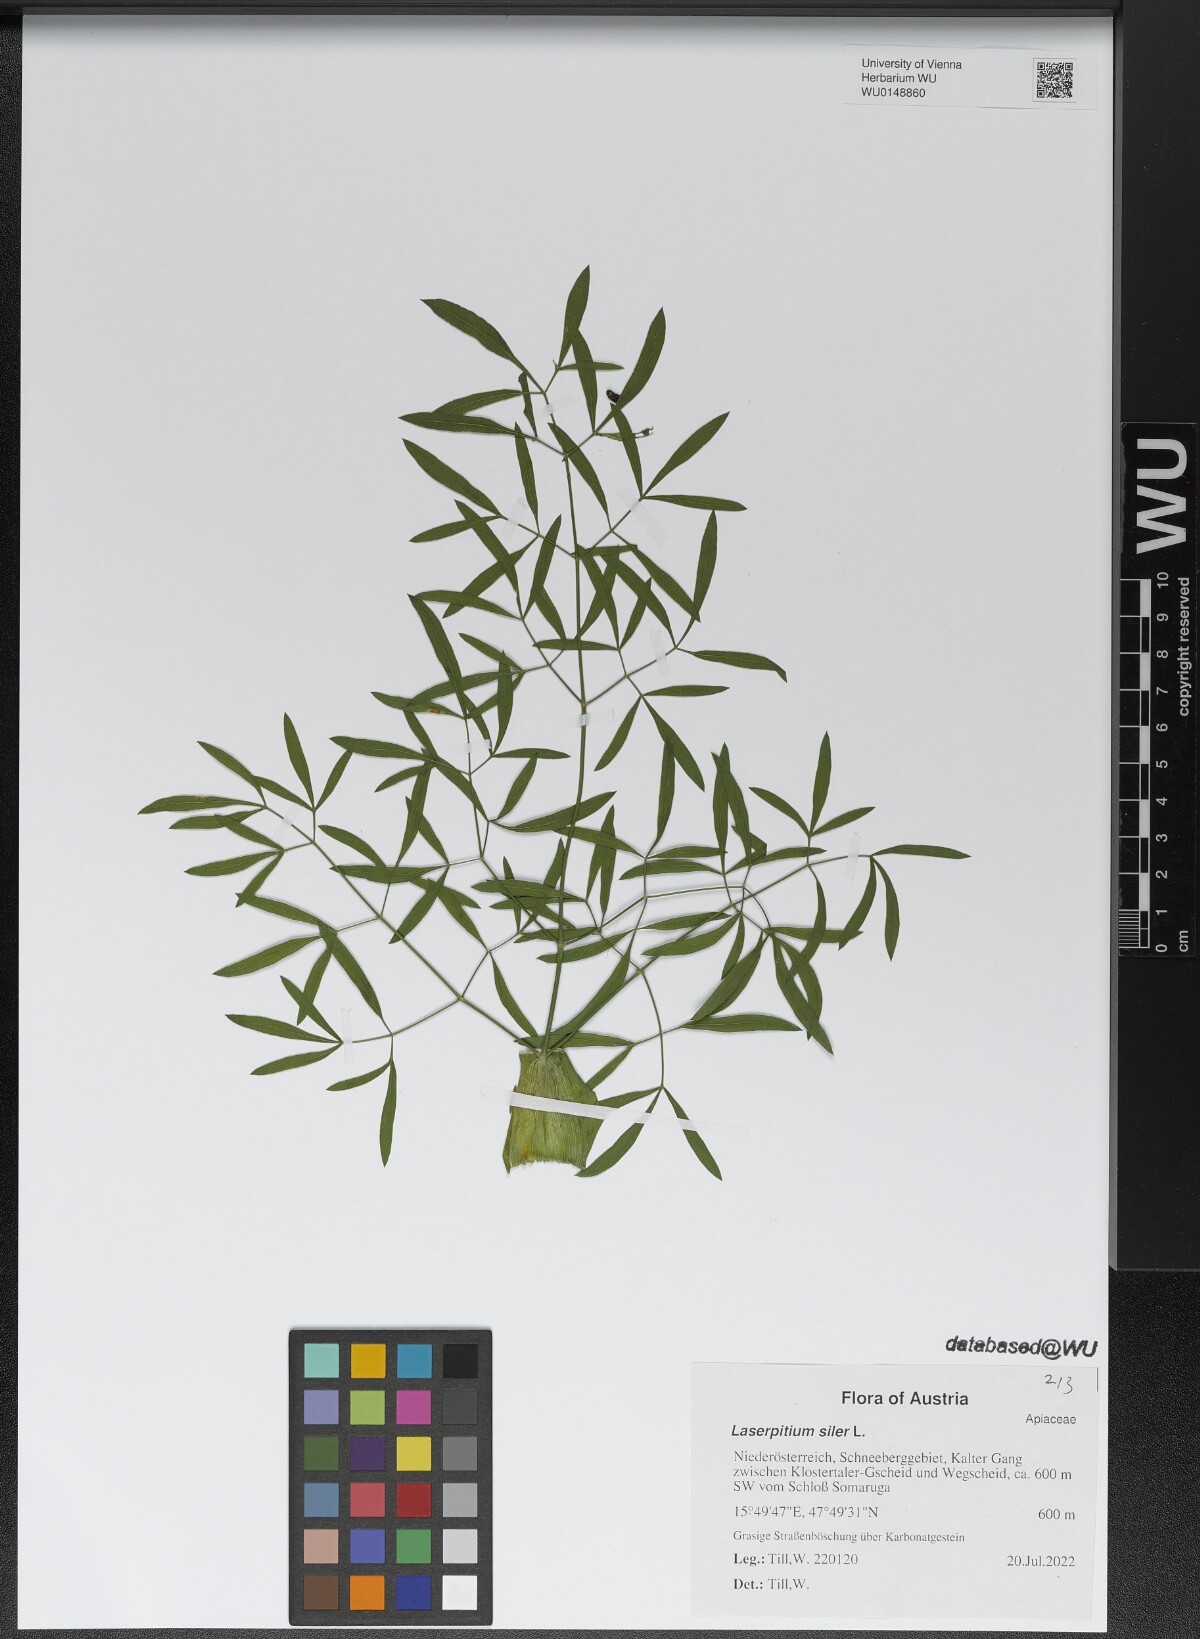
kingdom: Plantae
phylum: Tracheophyta
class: Magnoliopsida
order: Apiales
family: Apiaceae
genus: Siler
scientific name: Siler montanum
